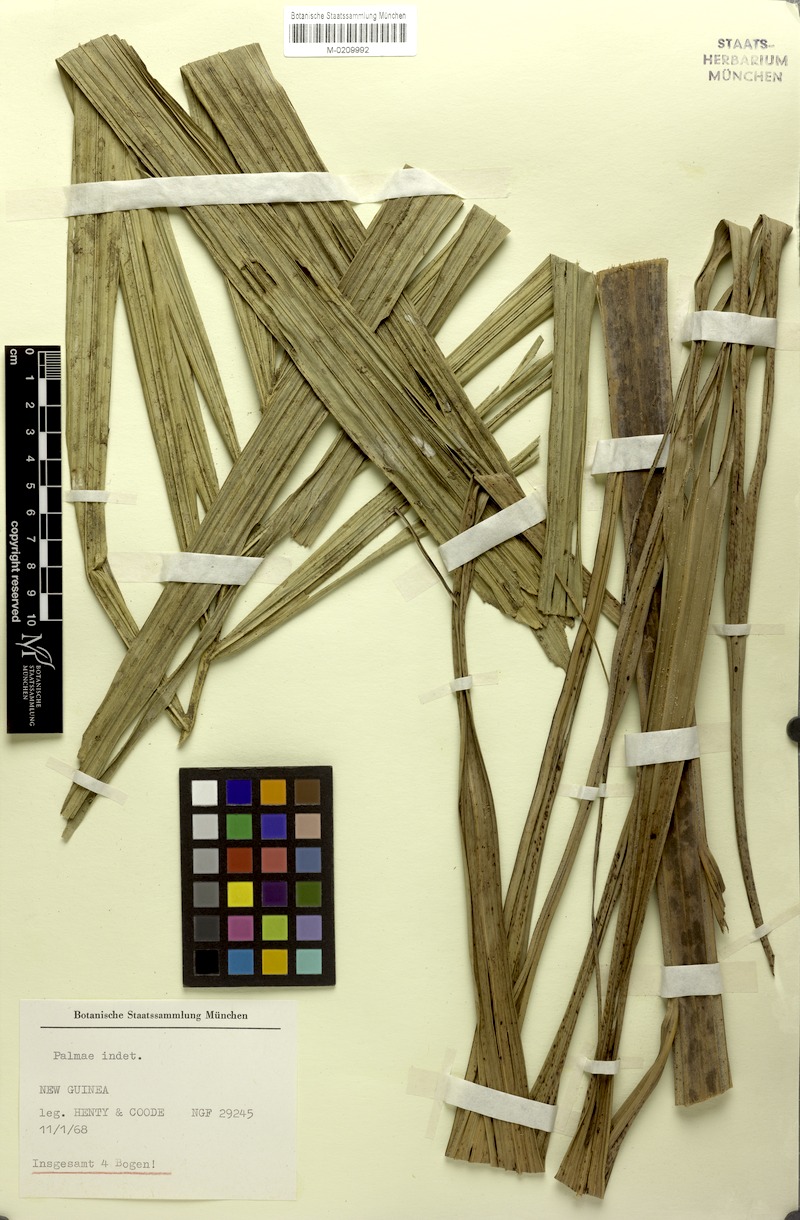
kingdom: Plantae
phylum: Tracheophyta
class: Liliopsida
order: Arecales
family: Arecaceae
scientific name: Arecaceae
